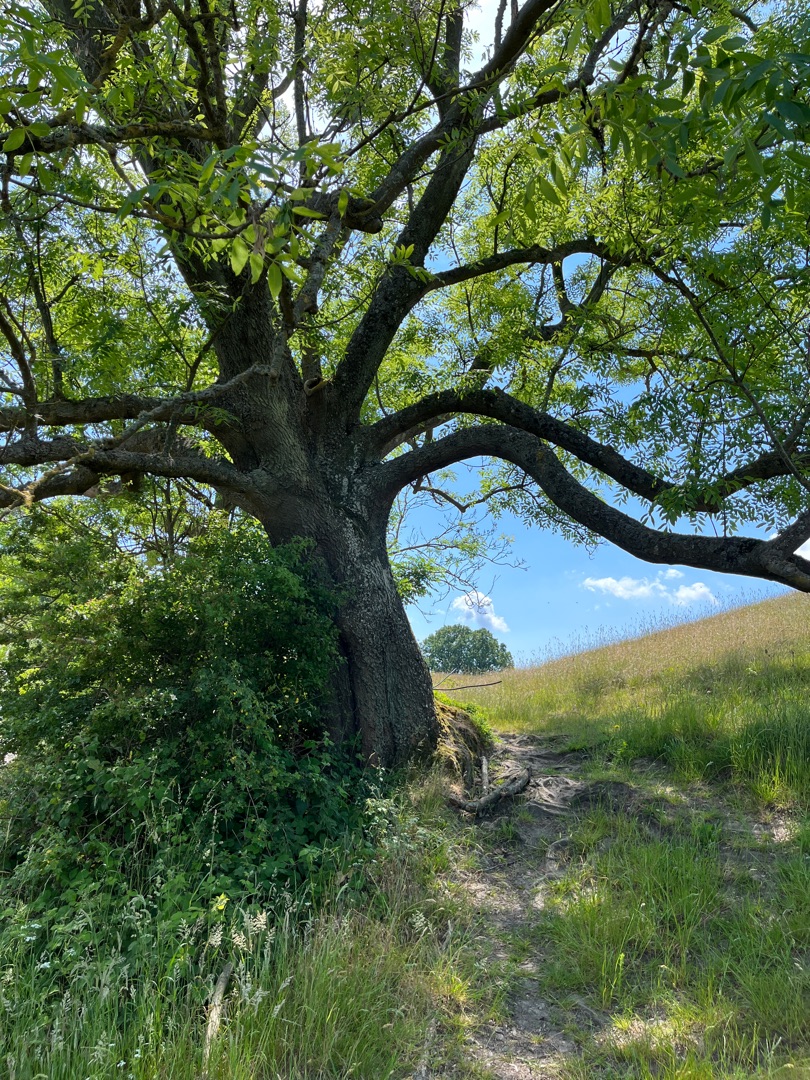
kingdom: Plantae
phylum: Tracheophyta
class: Magnoliopsida
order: Lamiales
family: Oleaceae
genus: Fraxinus
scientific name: Fraxinus excelsior
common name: Ask
